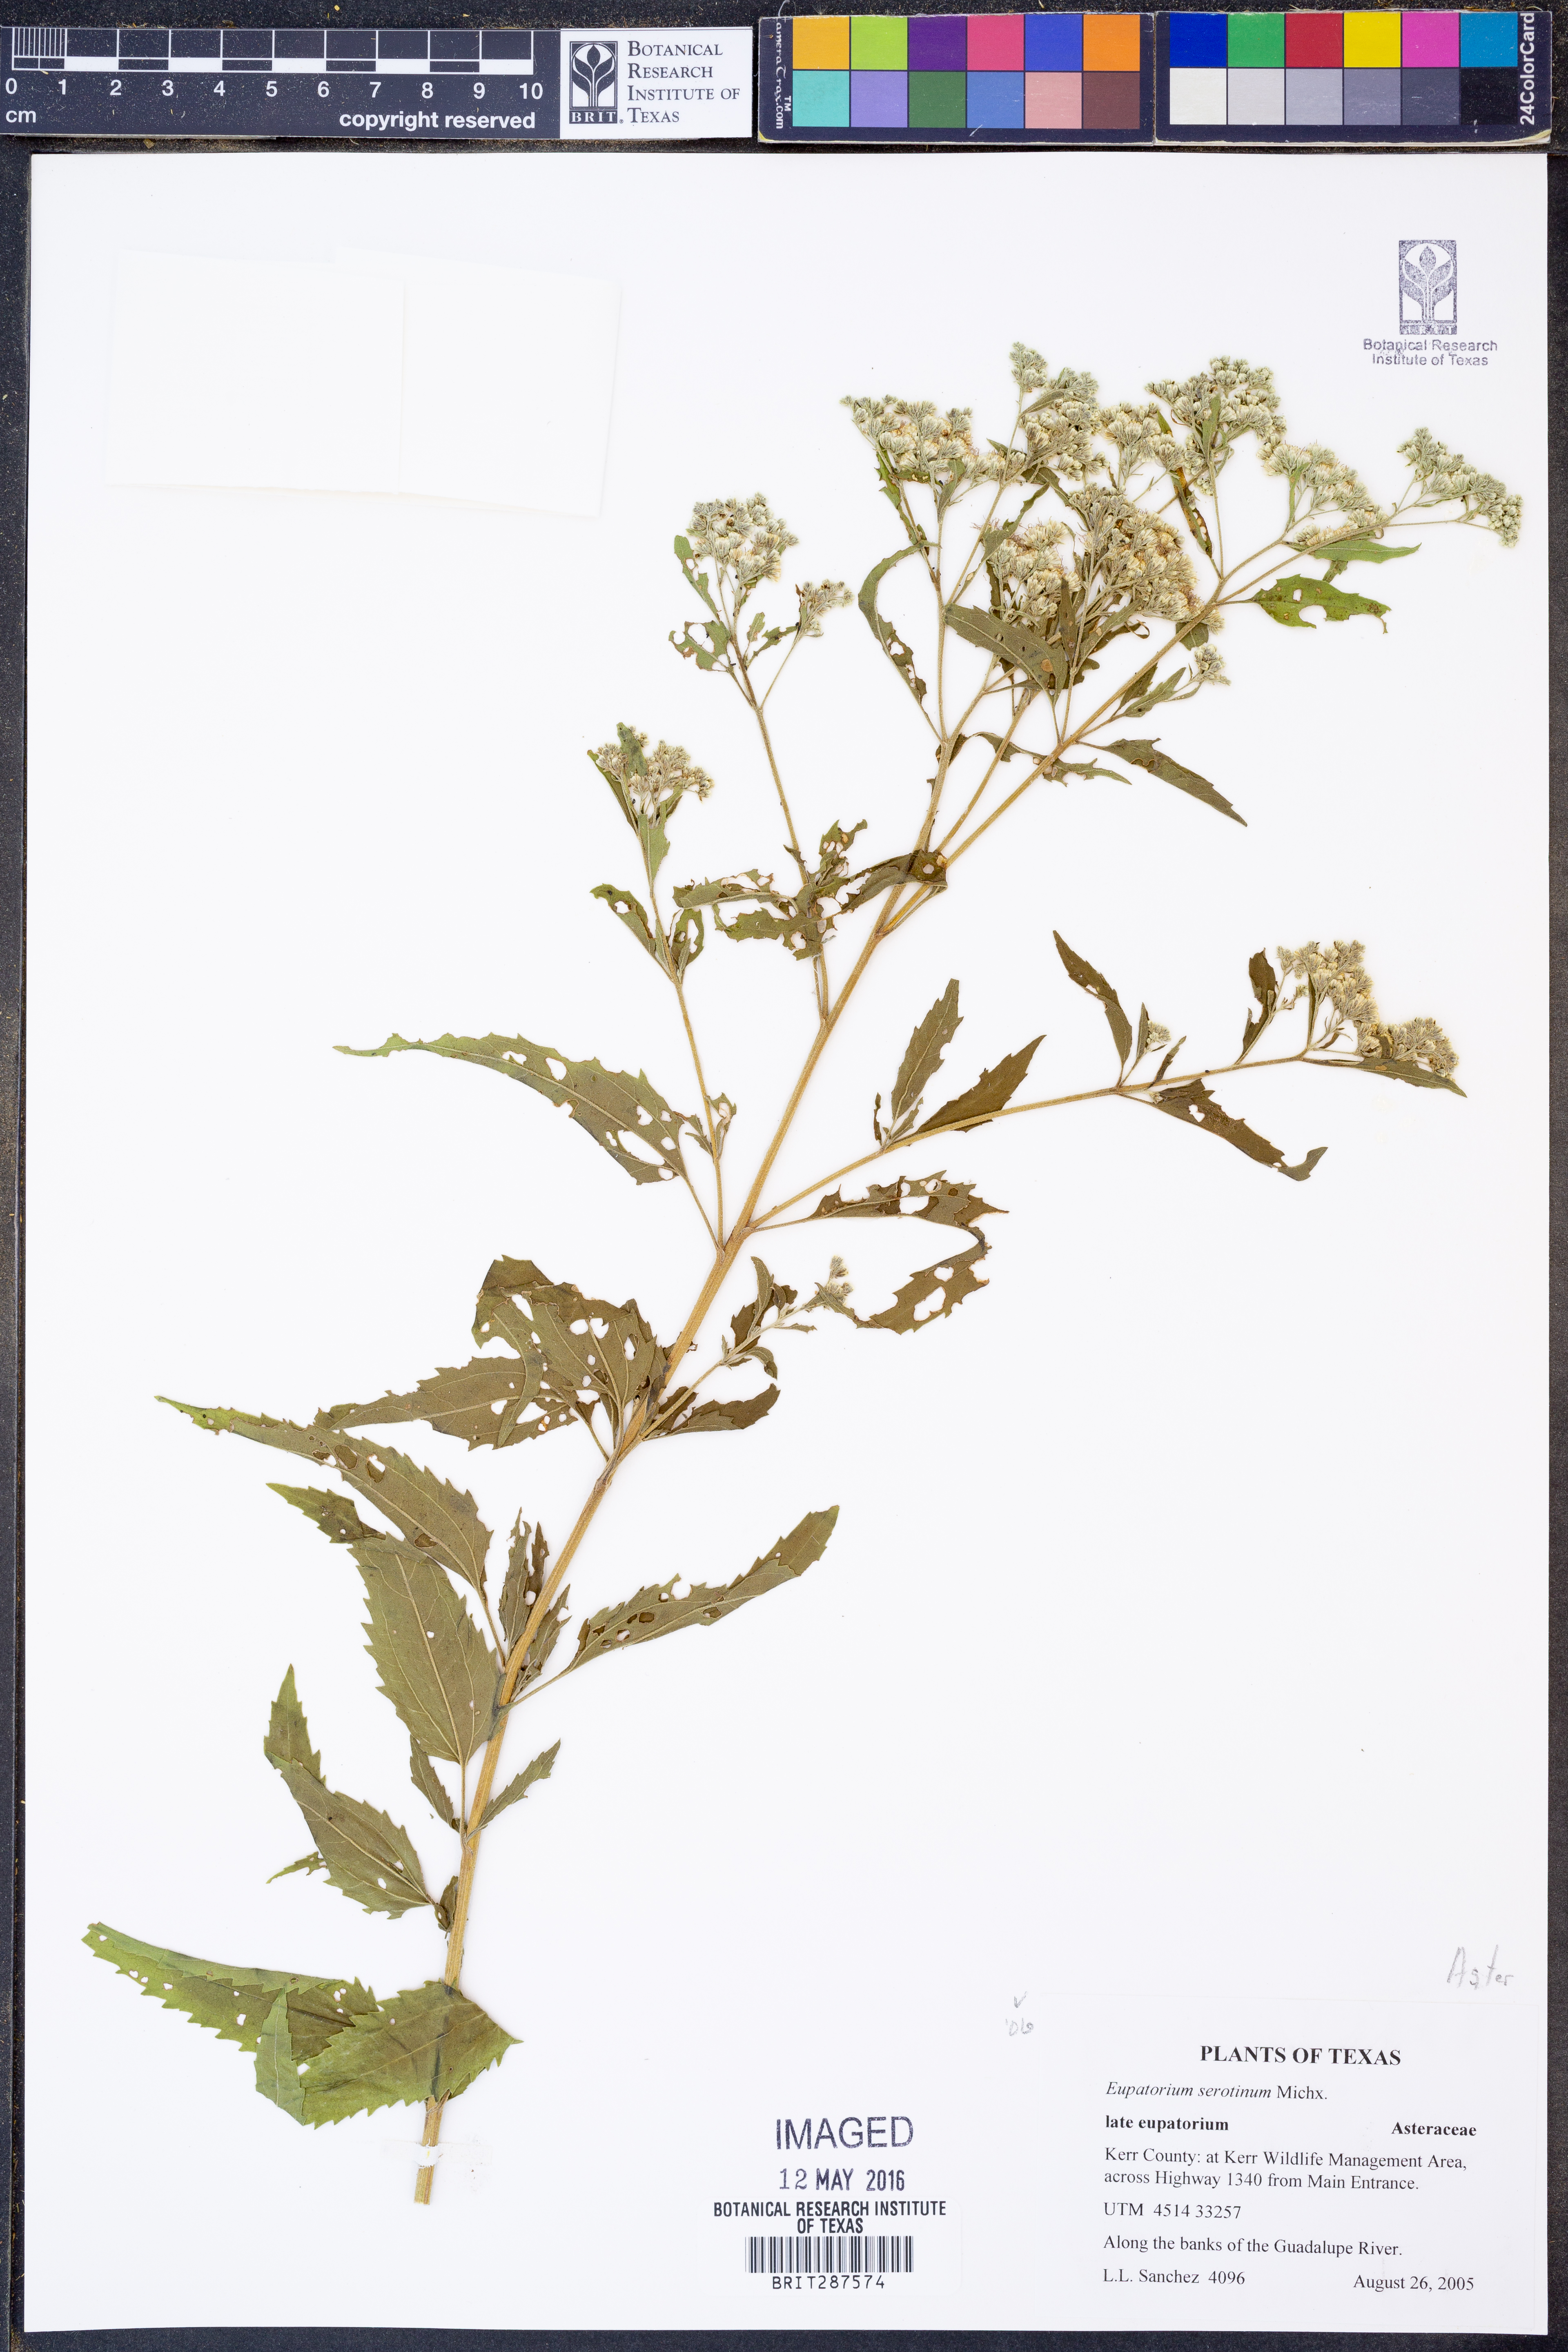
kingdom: Plantae
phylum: Tracheophyta
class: Magnoliopsida
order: Asterales
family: Asteraceae
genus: Eupatorium
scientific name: Eupatorium serotinum
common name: Late boneset
